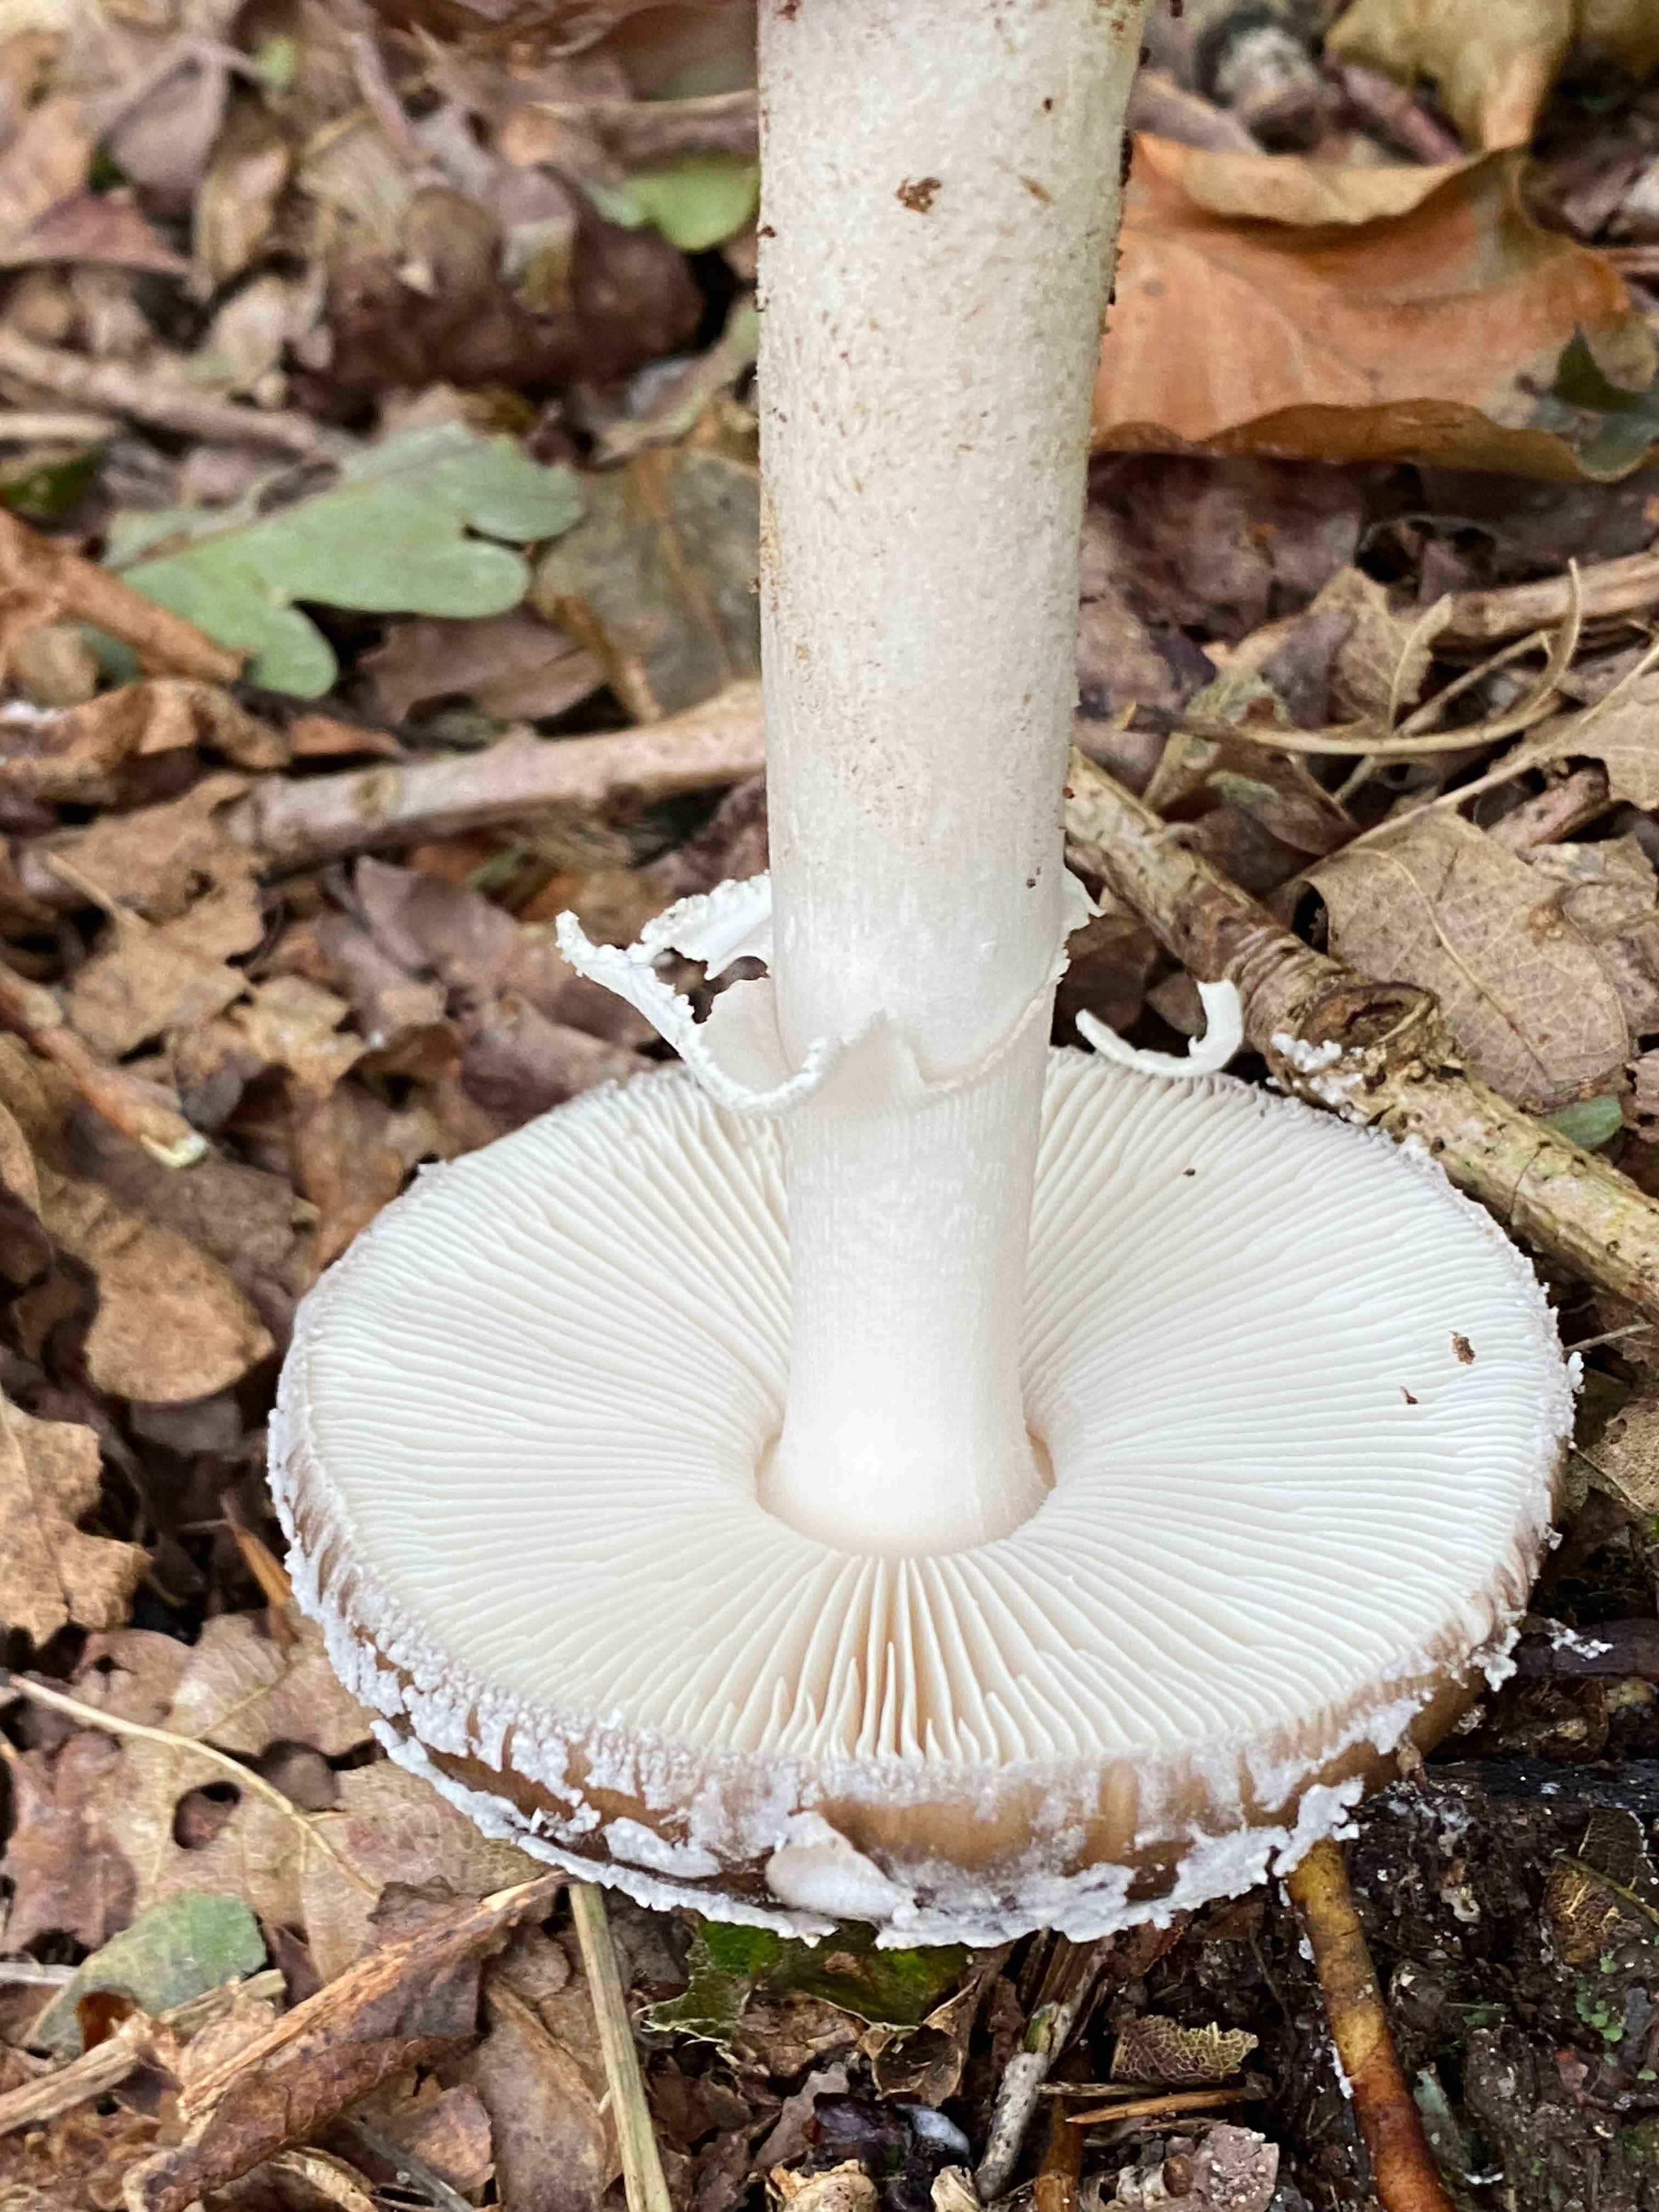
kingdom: Fungi
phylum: Basidiomycota
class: Agaricomycetes
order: Agaricales
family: Amanitaceae
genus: Amanita
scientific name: Amanita
